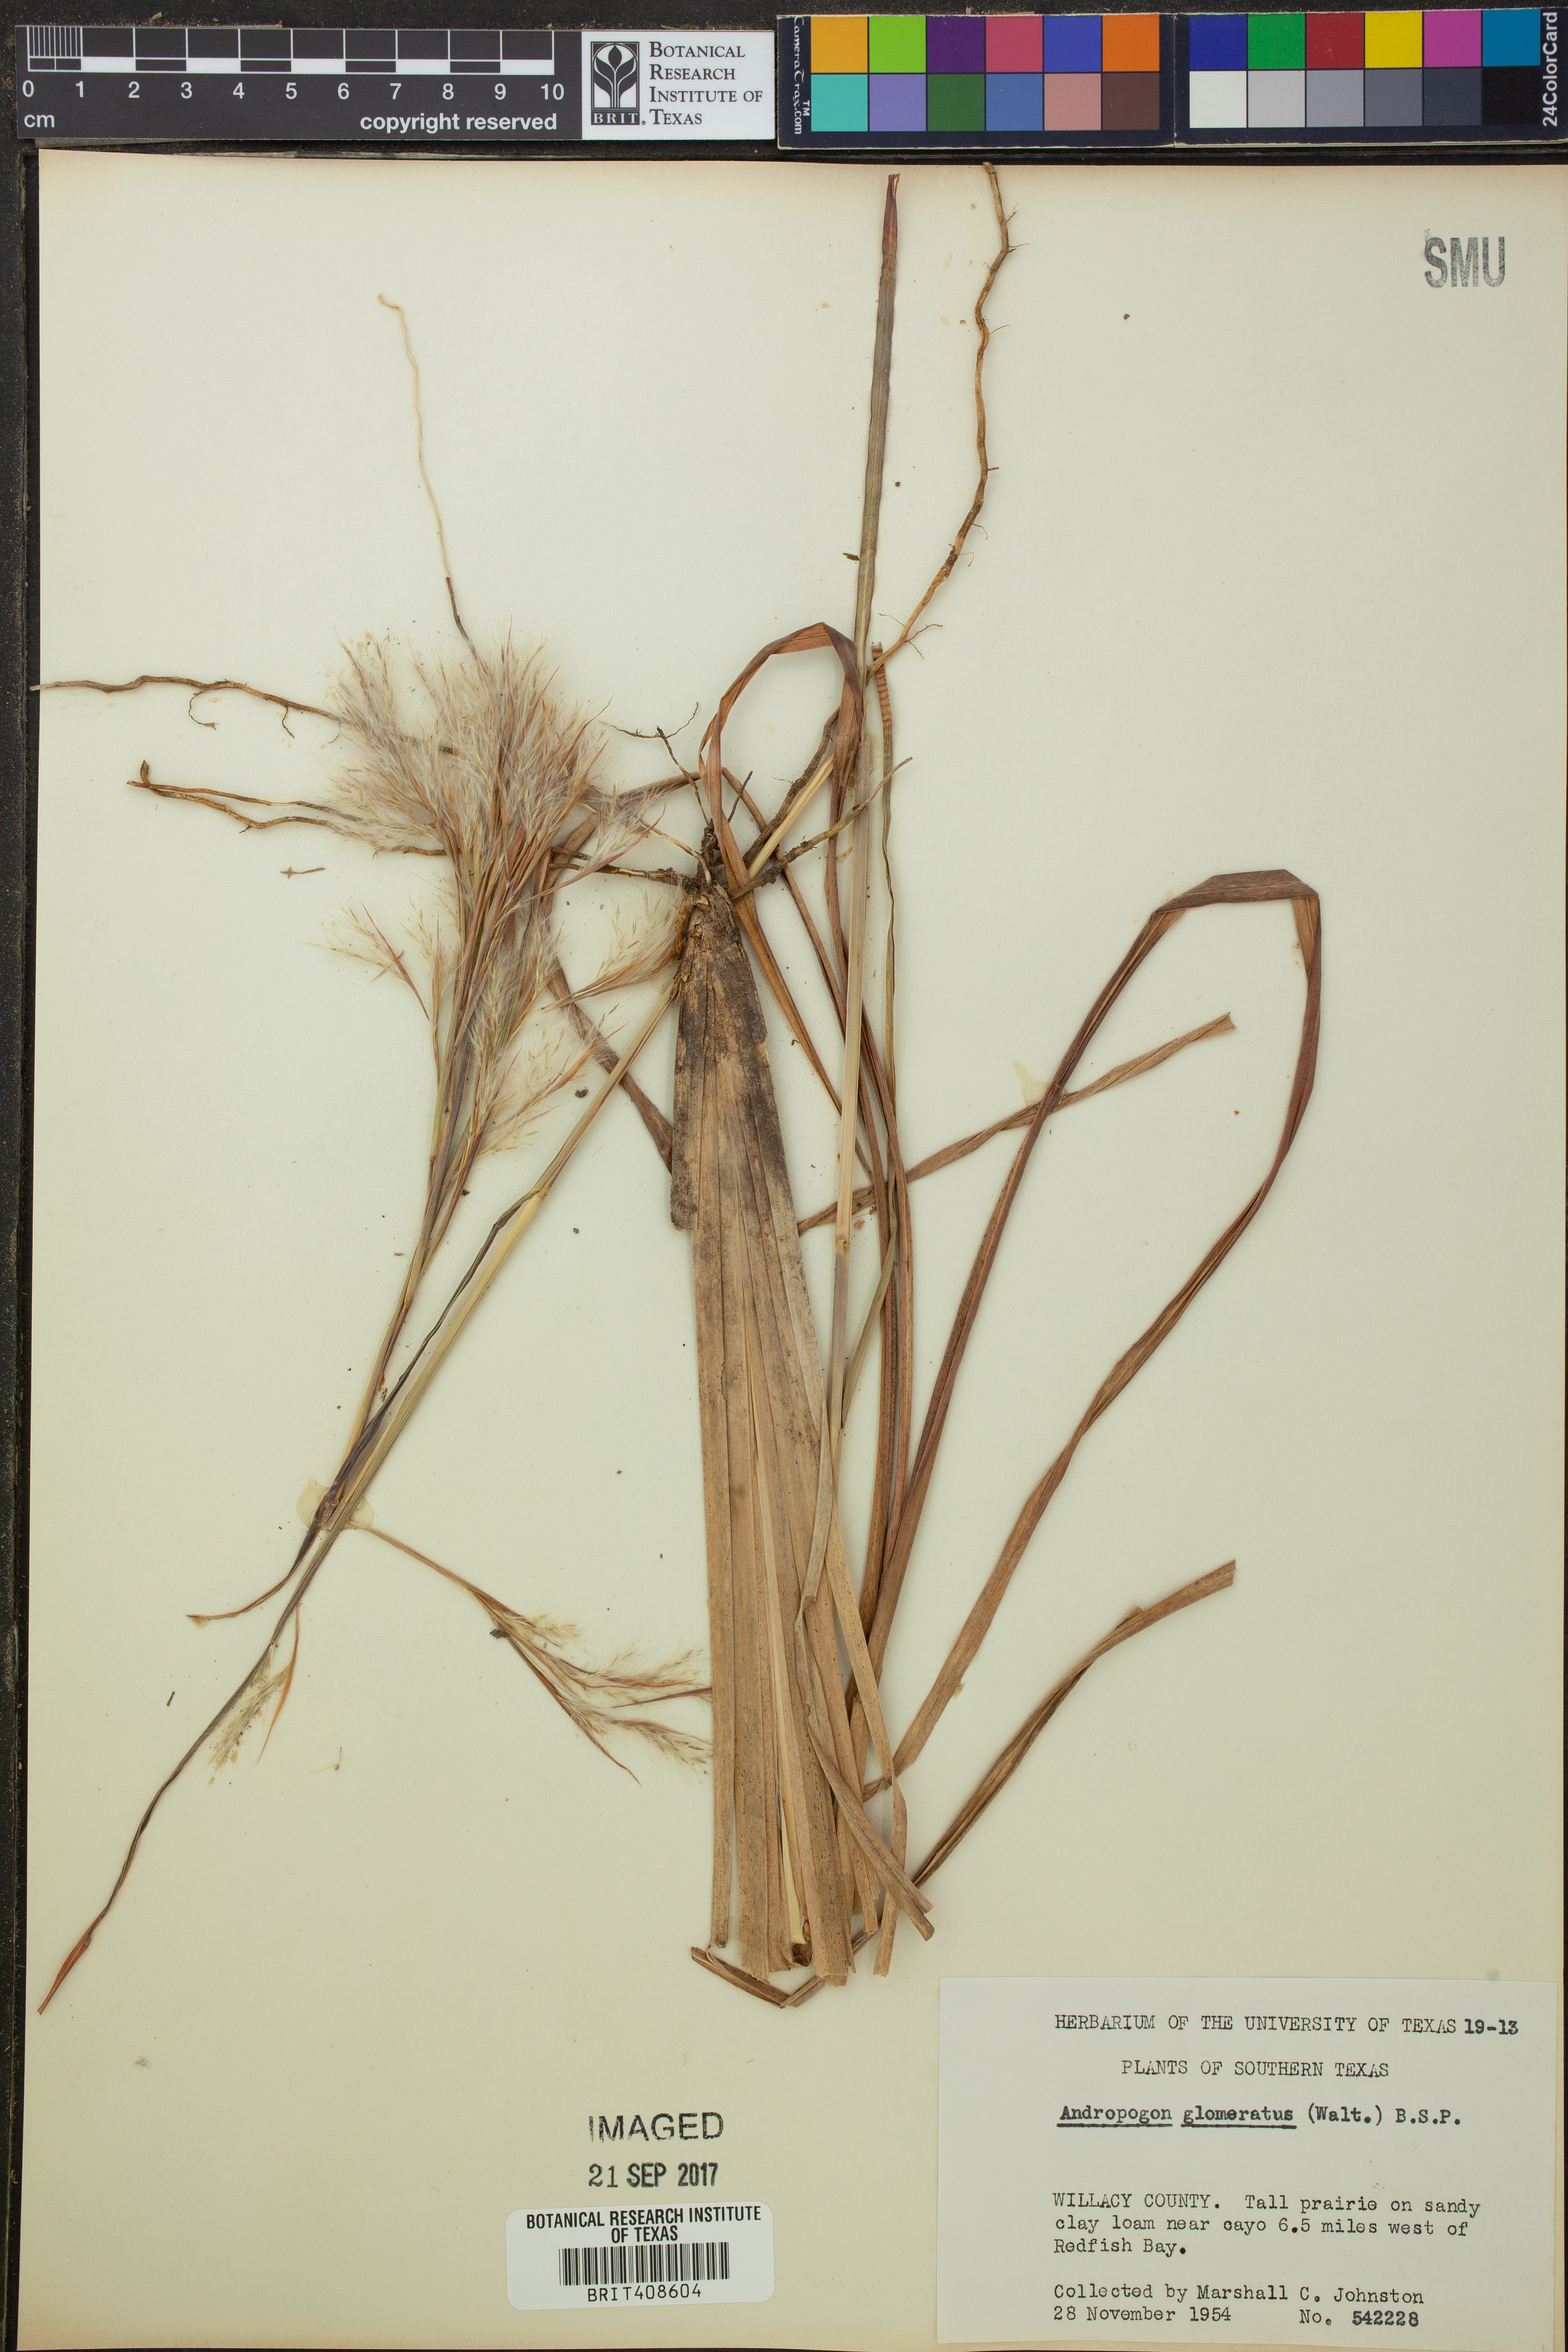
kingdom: Plantae
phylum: Tracheophyta
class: Liliopsida
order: Poales
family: Poaceae
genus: Andropogon
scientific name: Andropogon glomeratus
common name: Bushy beard grass
